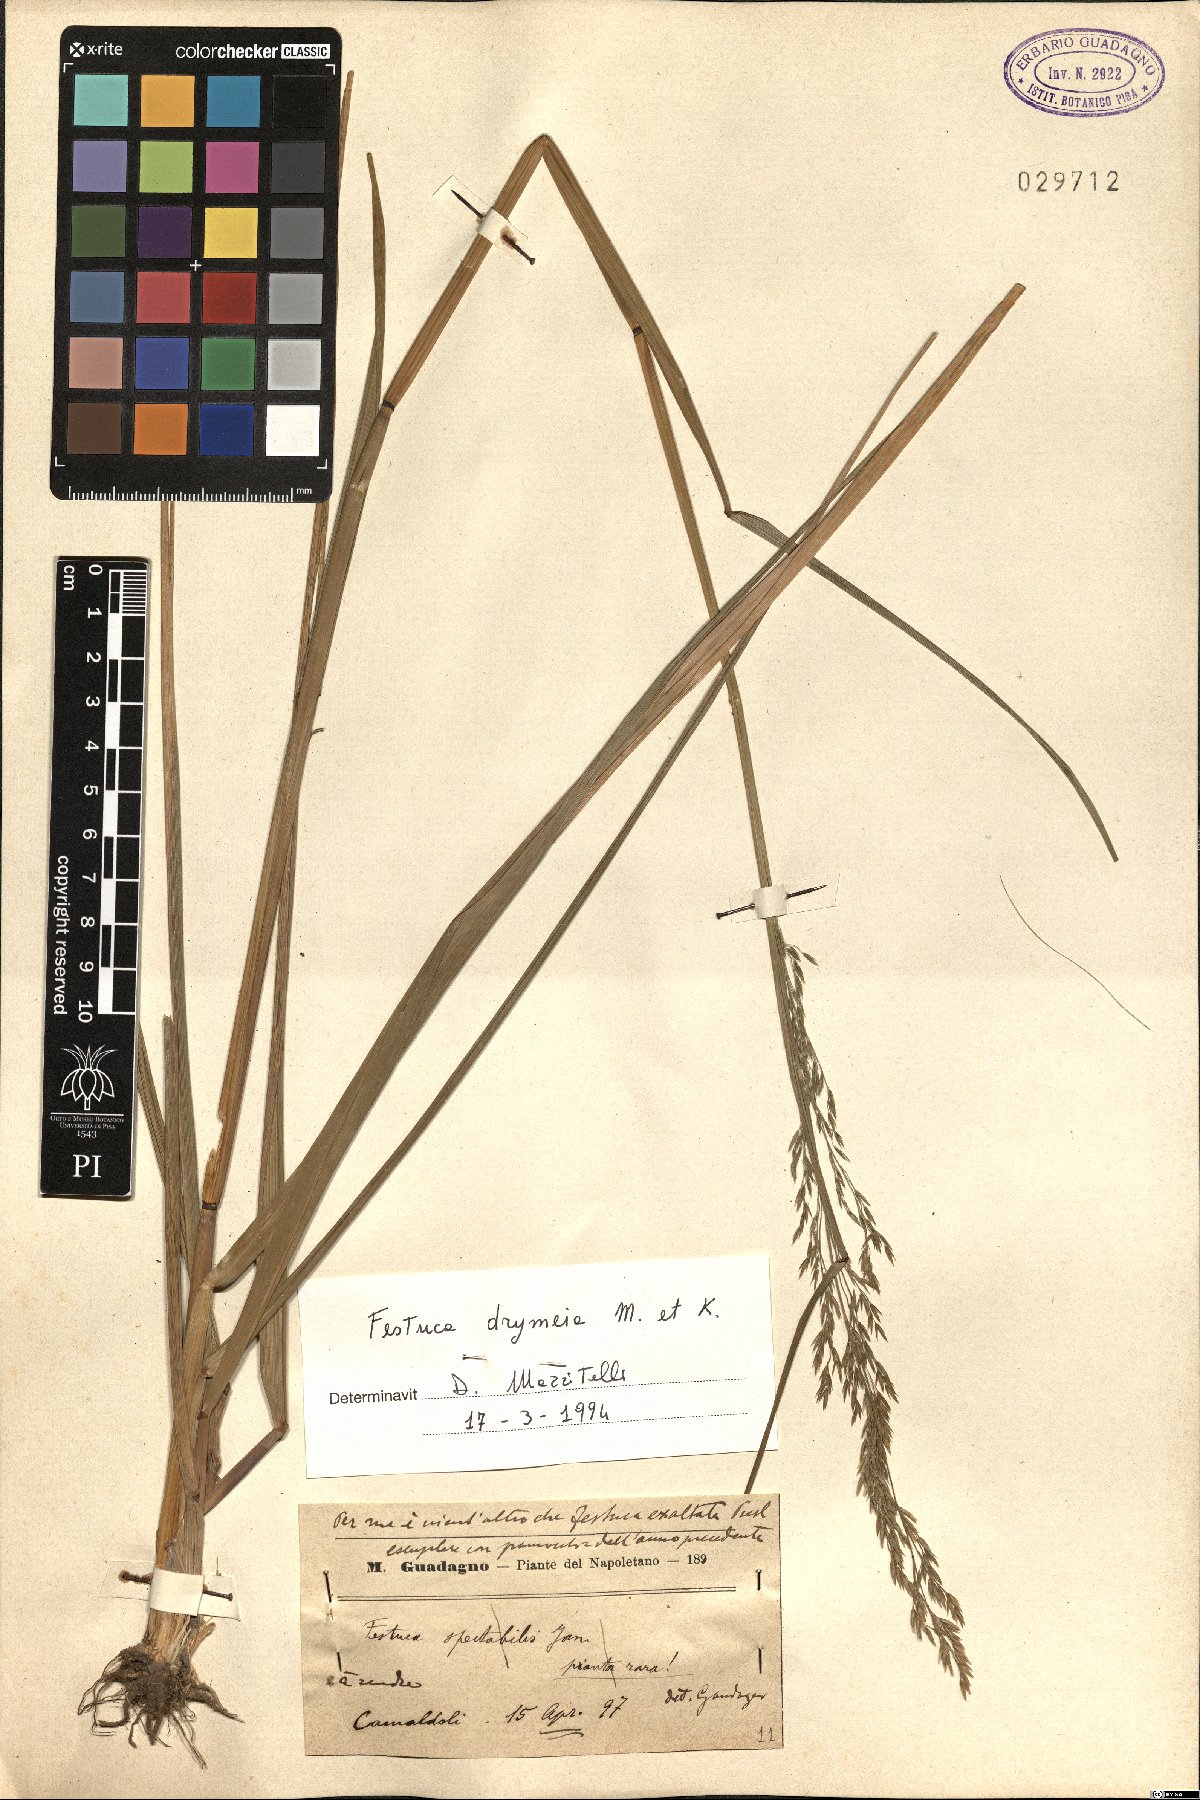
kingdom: Plantae
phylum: Tracheophyta
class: Liliopsida
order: Poales
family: Poaceae
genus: Festuca
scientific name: Festuca drymeja
